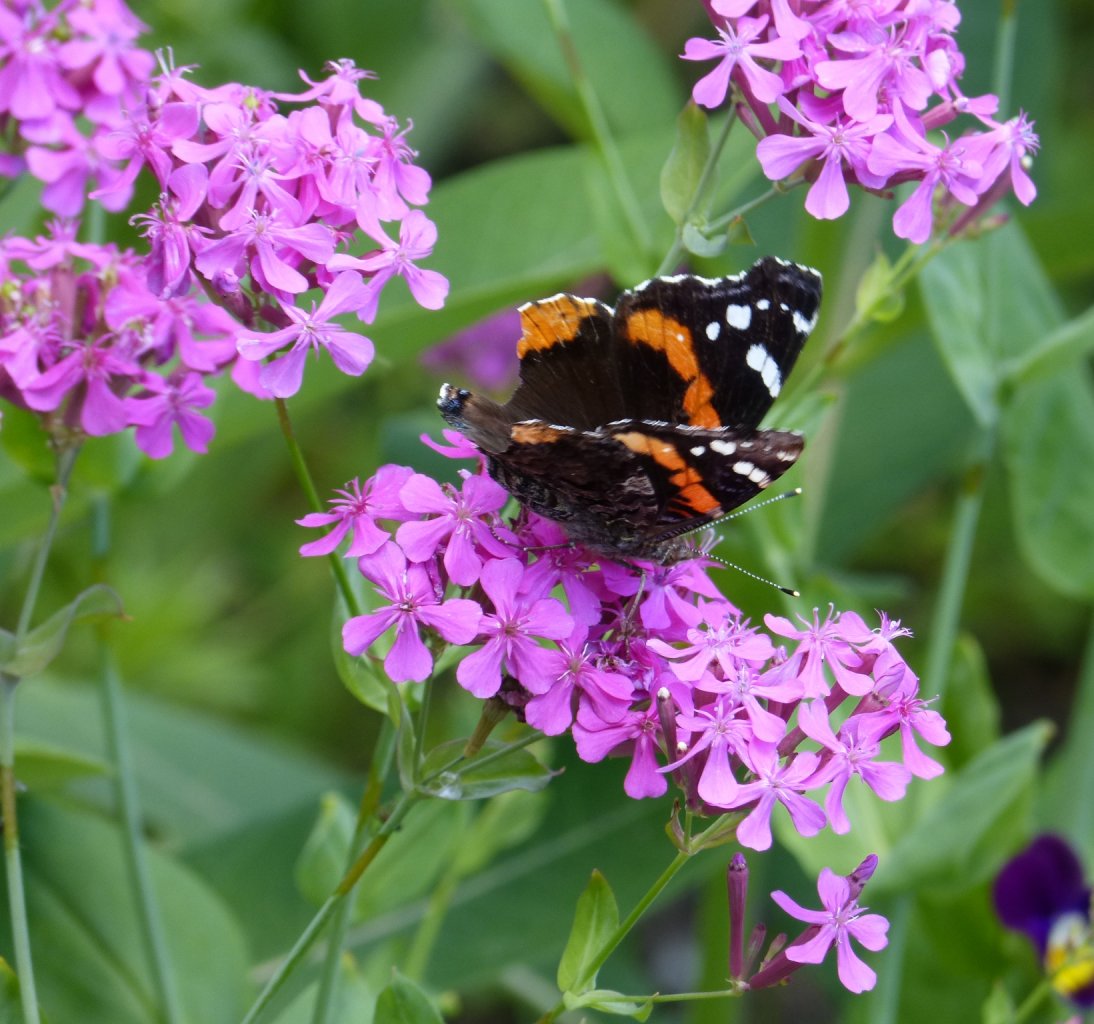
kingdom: Animalia
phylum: Arthropoda
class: Insecta
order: Lepidoptera
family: Nymphalidae
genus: Vanessa
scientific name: Vanessa atalanta
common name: Red Admiral
